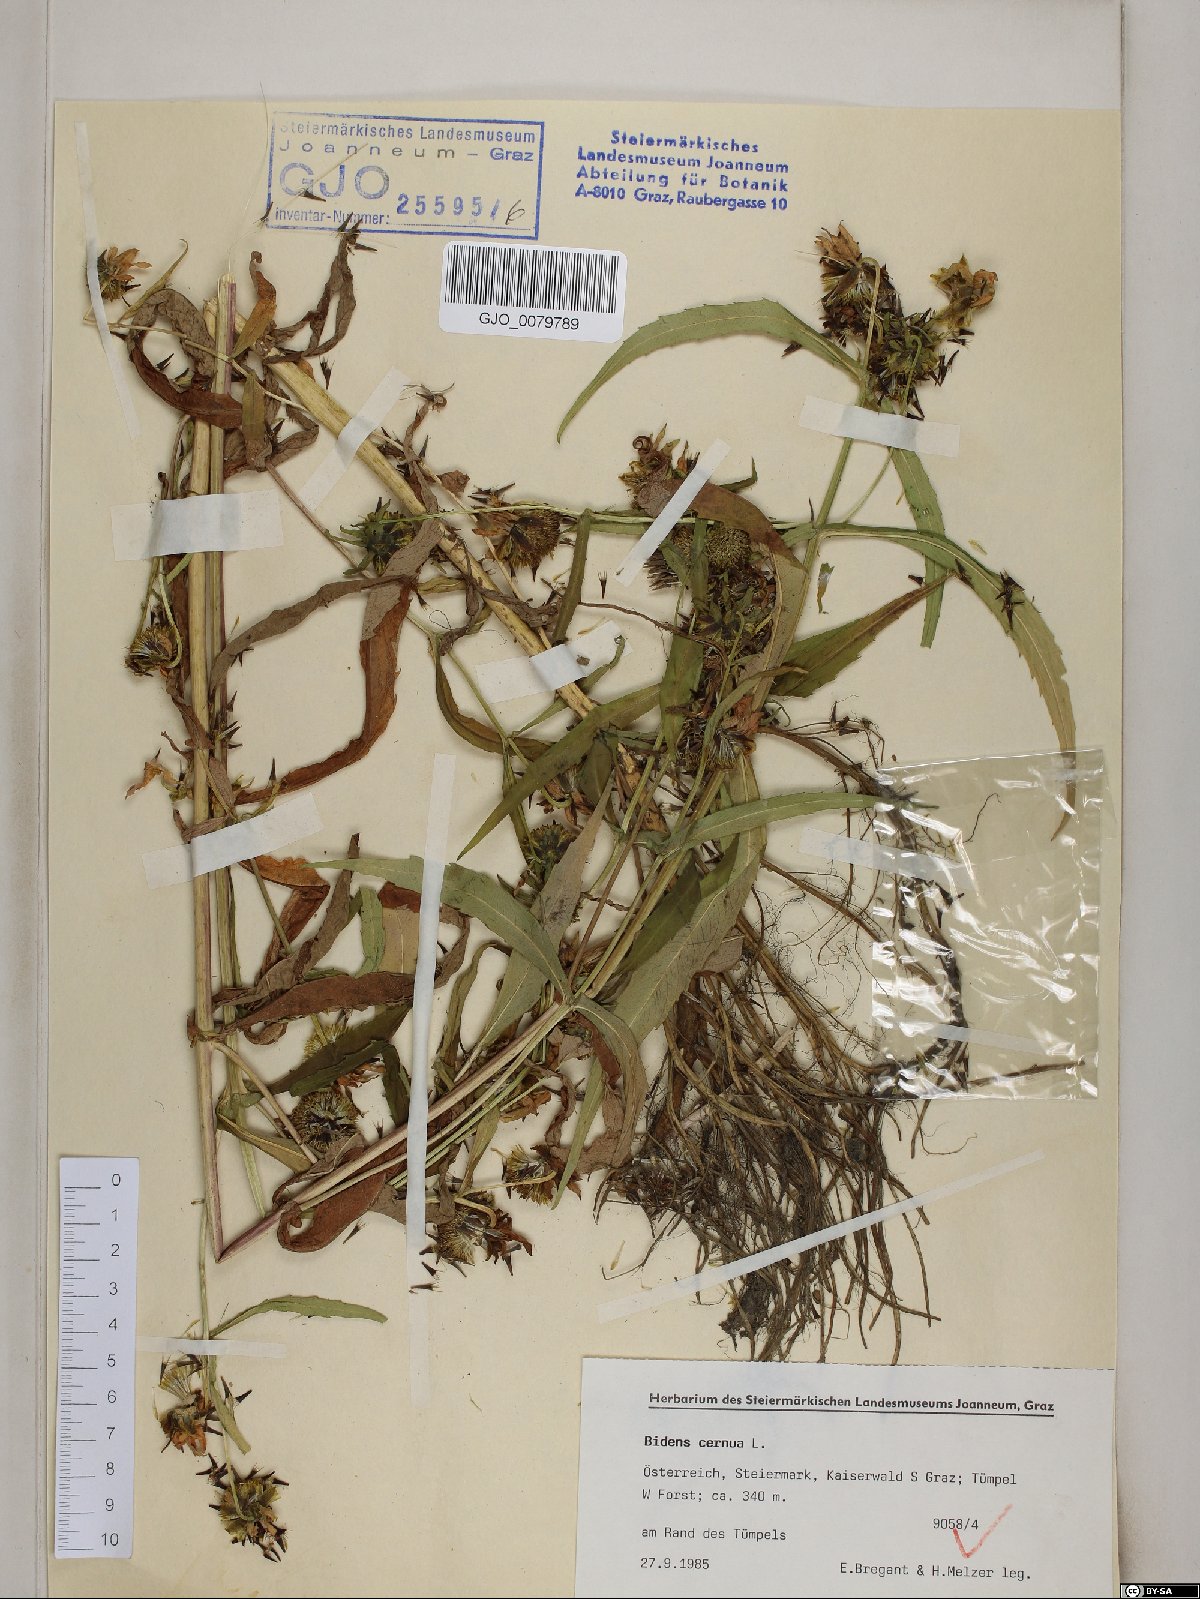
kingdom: Plantae
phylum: Tracheophyta
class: Magnoliopsida
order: Asterales
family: Asteraceae
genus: Bidens
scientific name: Bidens cernua
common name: Nodding bur-marigold
